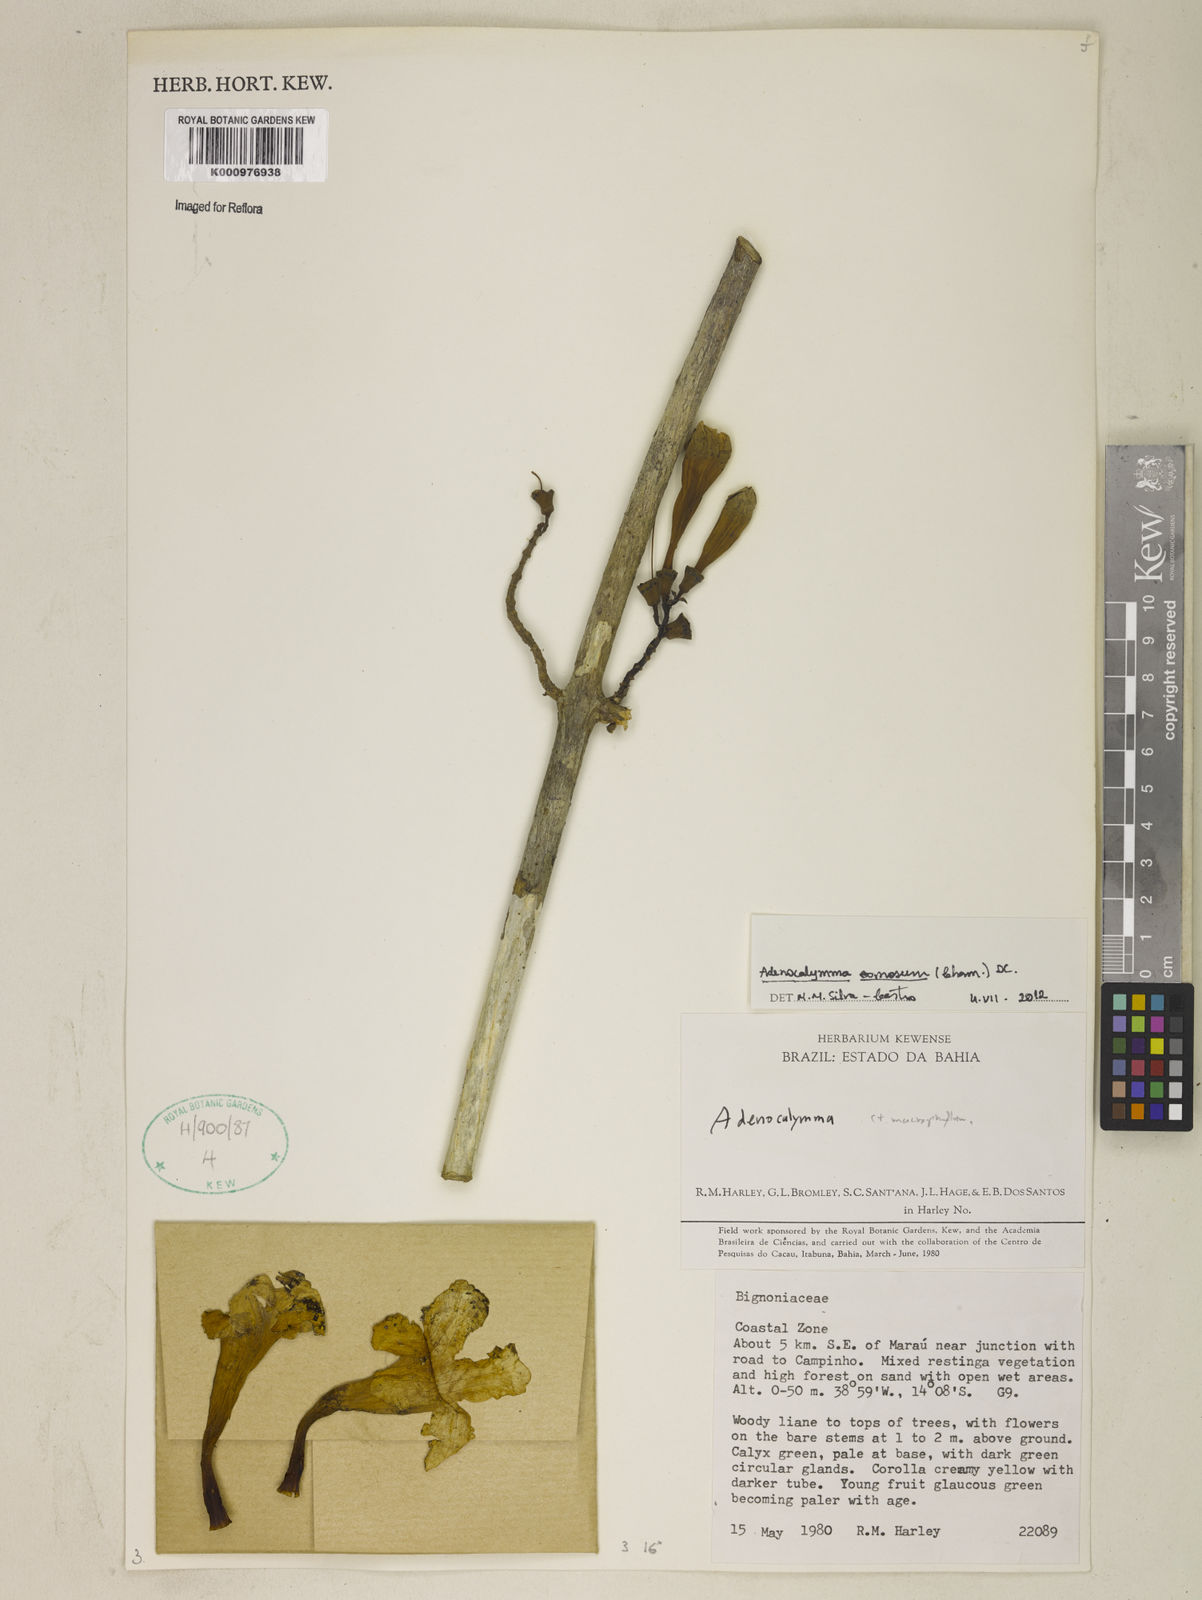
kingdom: Plantae
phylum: Tracheophyta
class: Magnoliopsida
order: Lamiales
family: Bignoniaceae
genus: Adenocalymma
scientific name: Adenocalymma acutissimum
